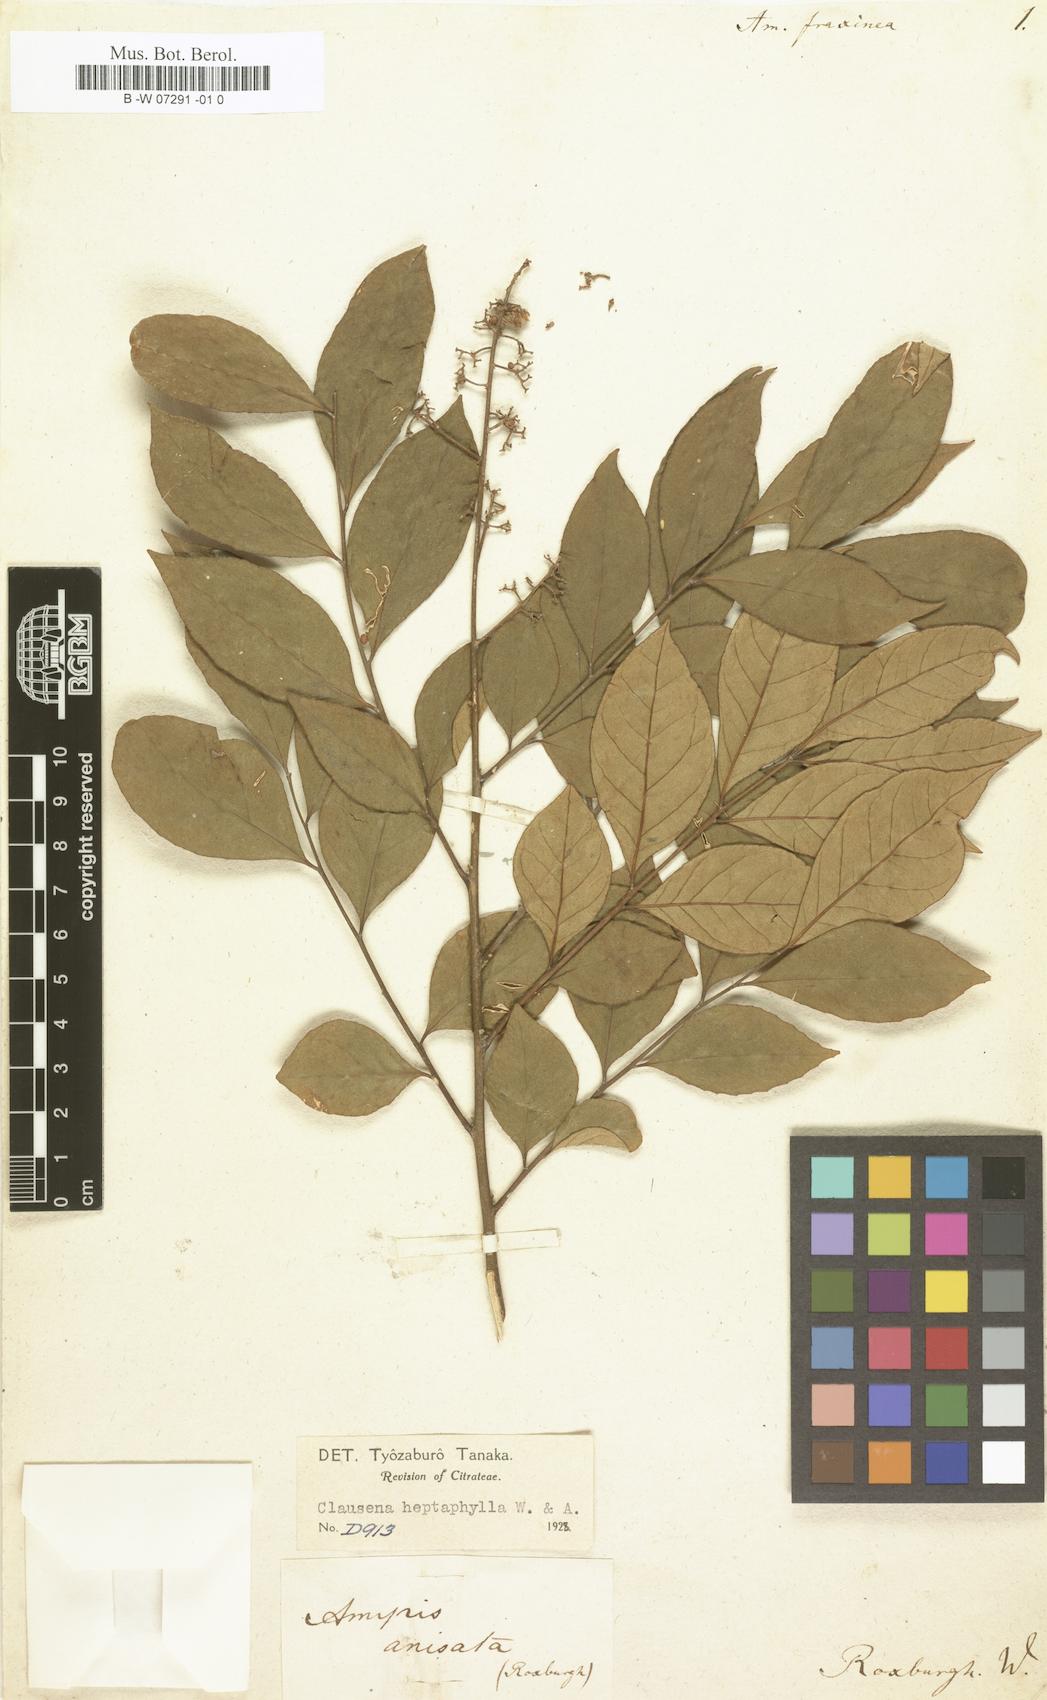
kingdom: Plantae
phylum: Tracheophyta
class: Magnoliopsida
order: Sapindales
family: Rutaceae
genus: Amyris
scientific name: Amyris
